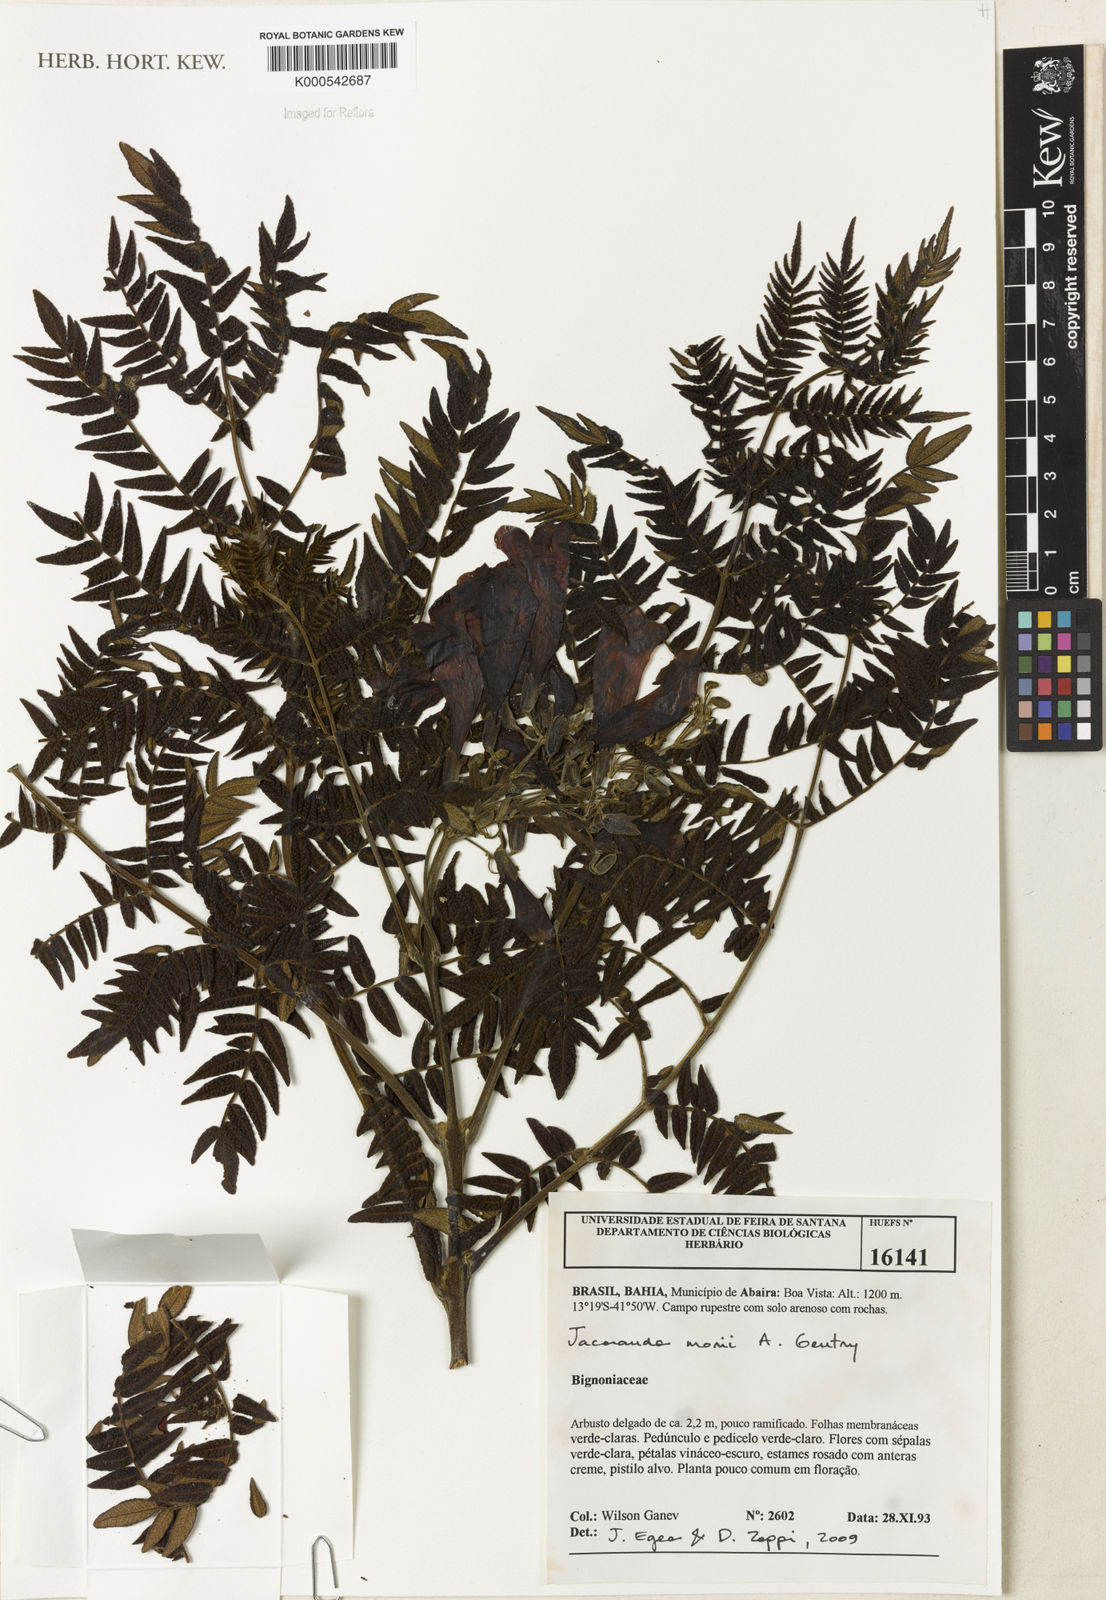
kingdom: Plantae
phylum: Tracheophyta
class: Magnoliopsida
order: Lamiales
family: Bignoniaceae
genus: Jacaranda
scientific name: Jacaranda ulei
